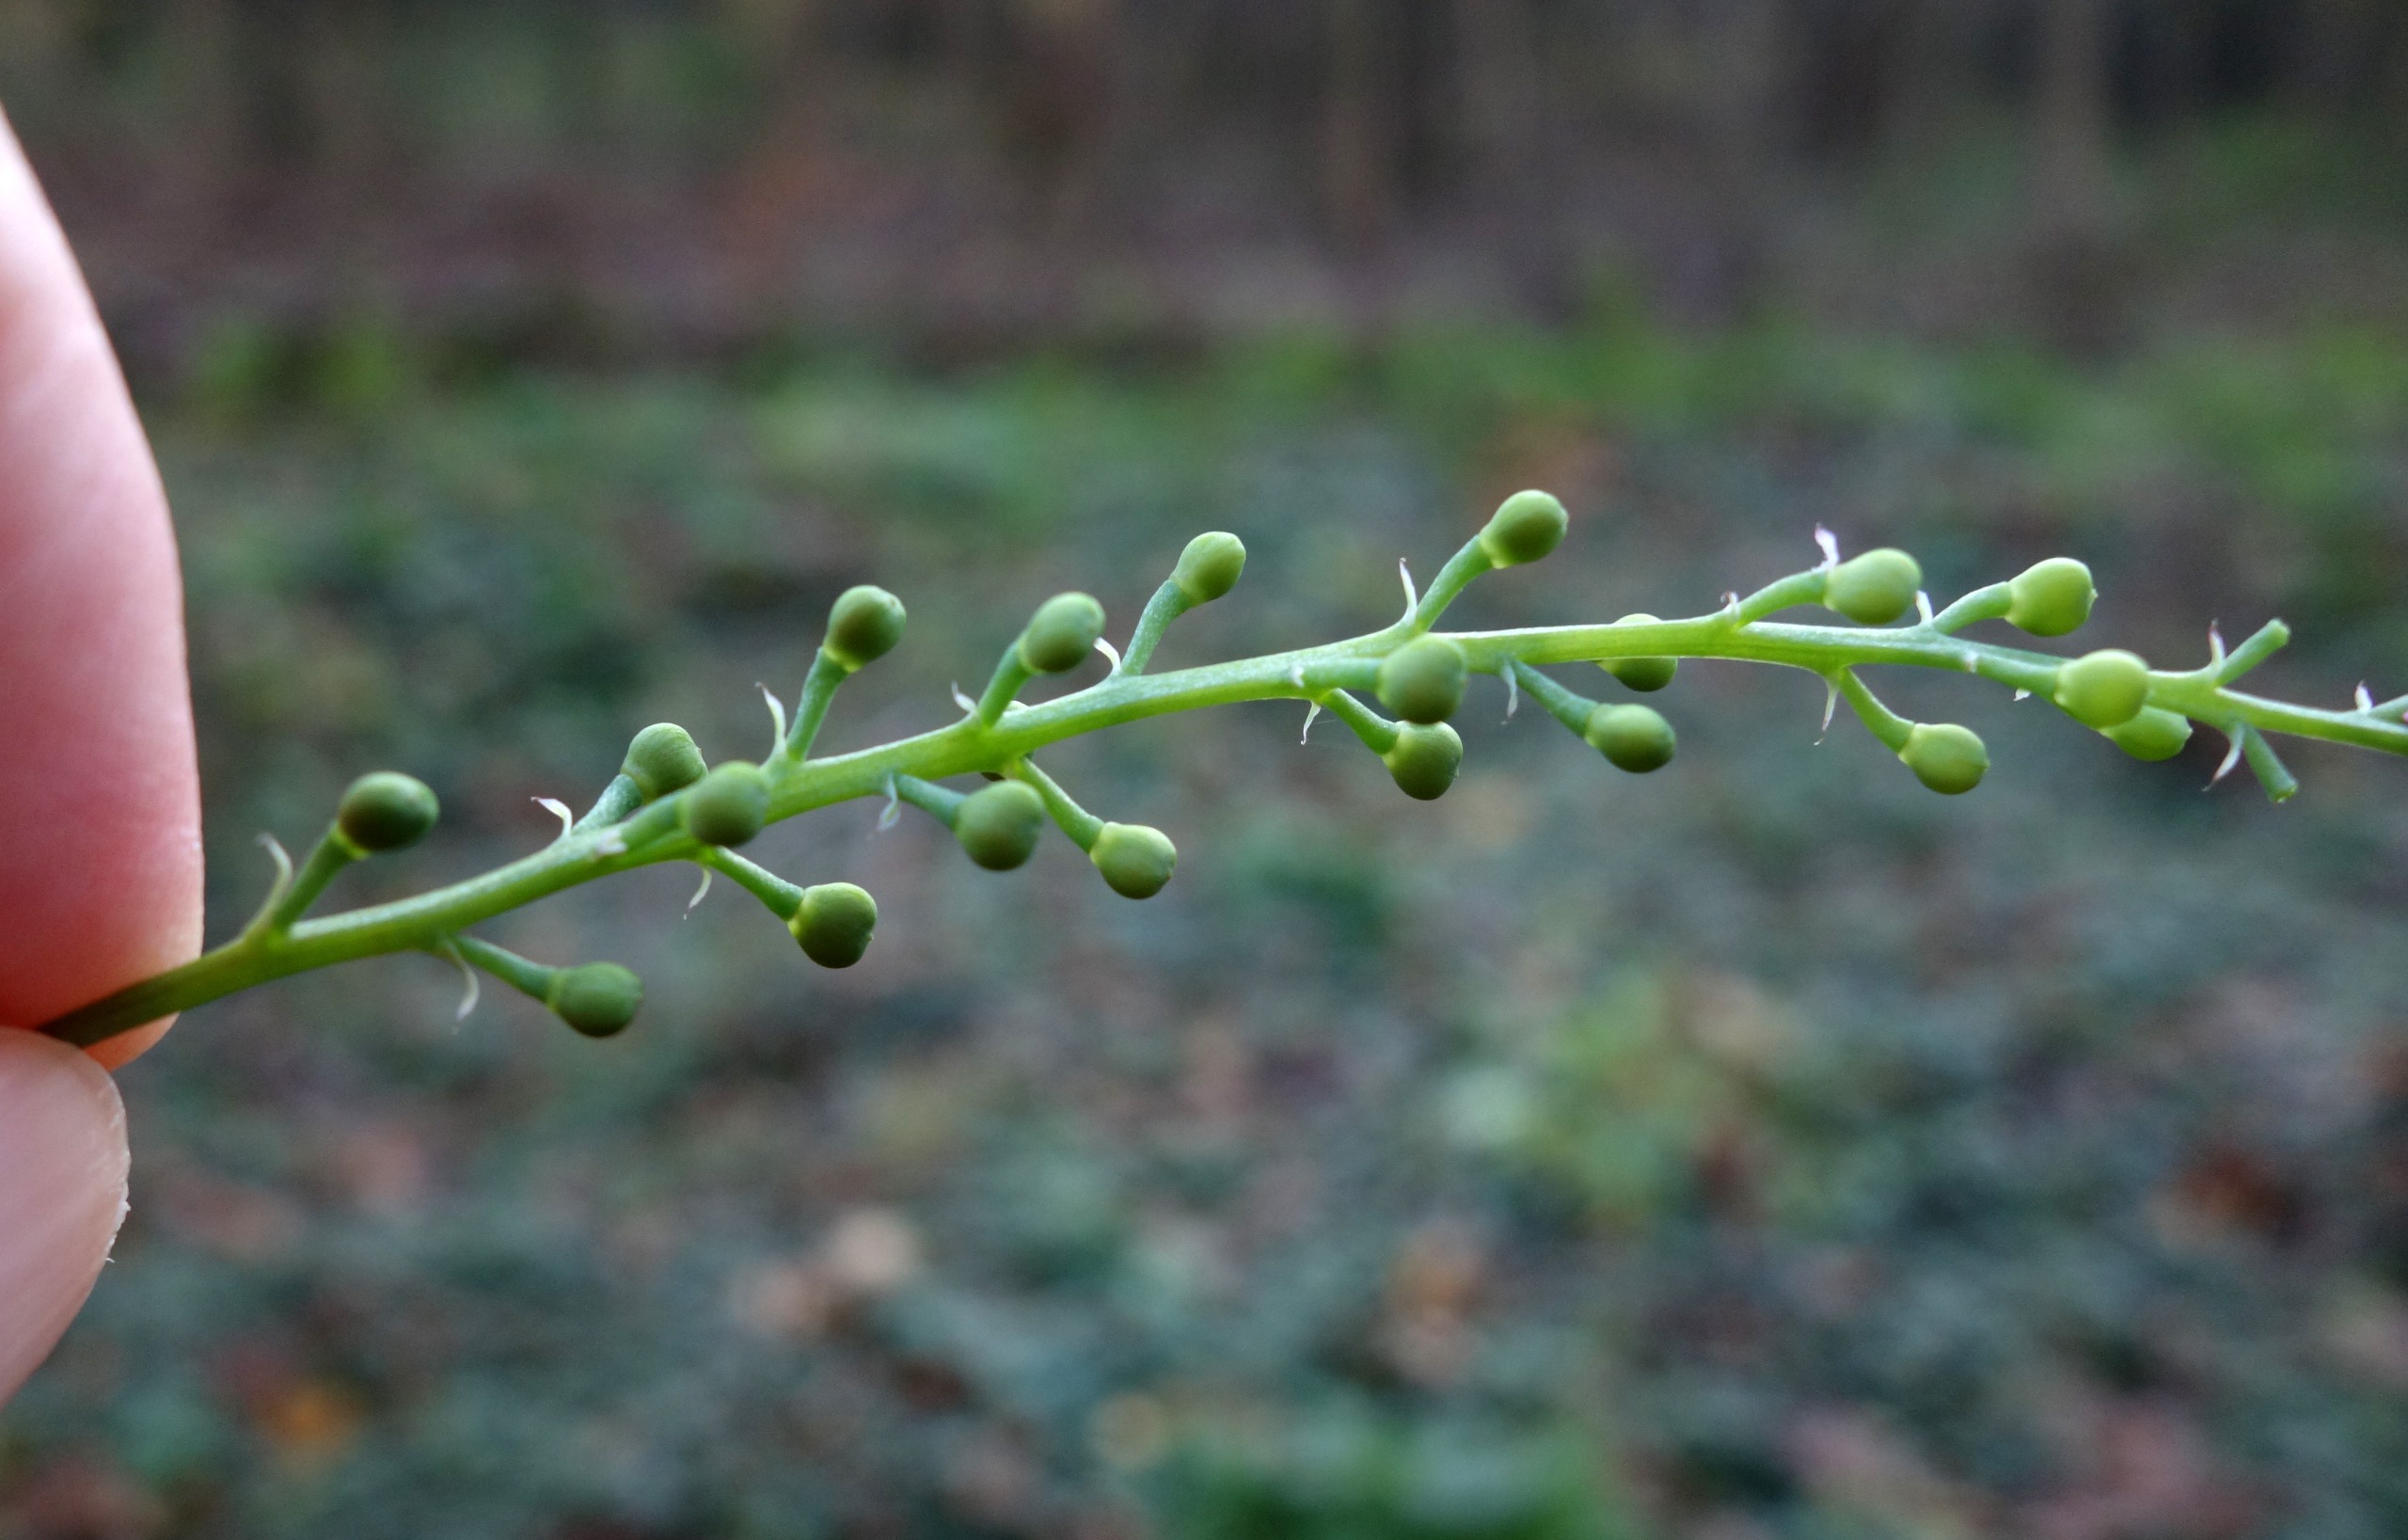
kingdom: Plantae
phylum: Tracheophyta
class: Magnoliopsida
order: Ranunculales
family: Papaveraceae
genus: Fumaria
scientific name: Fumaria officinalis
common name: Læge-jordrøg
